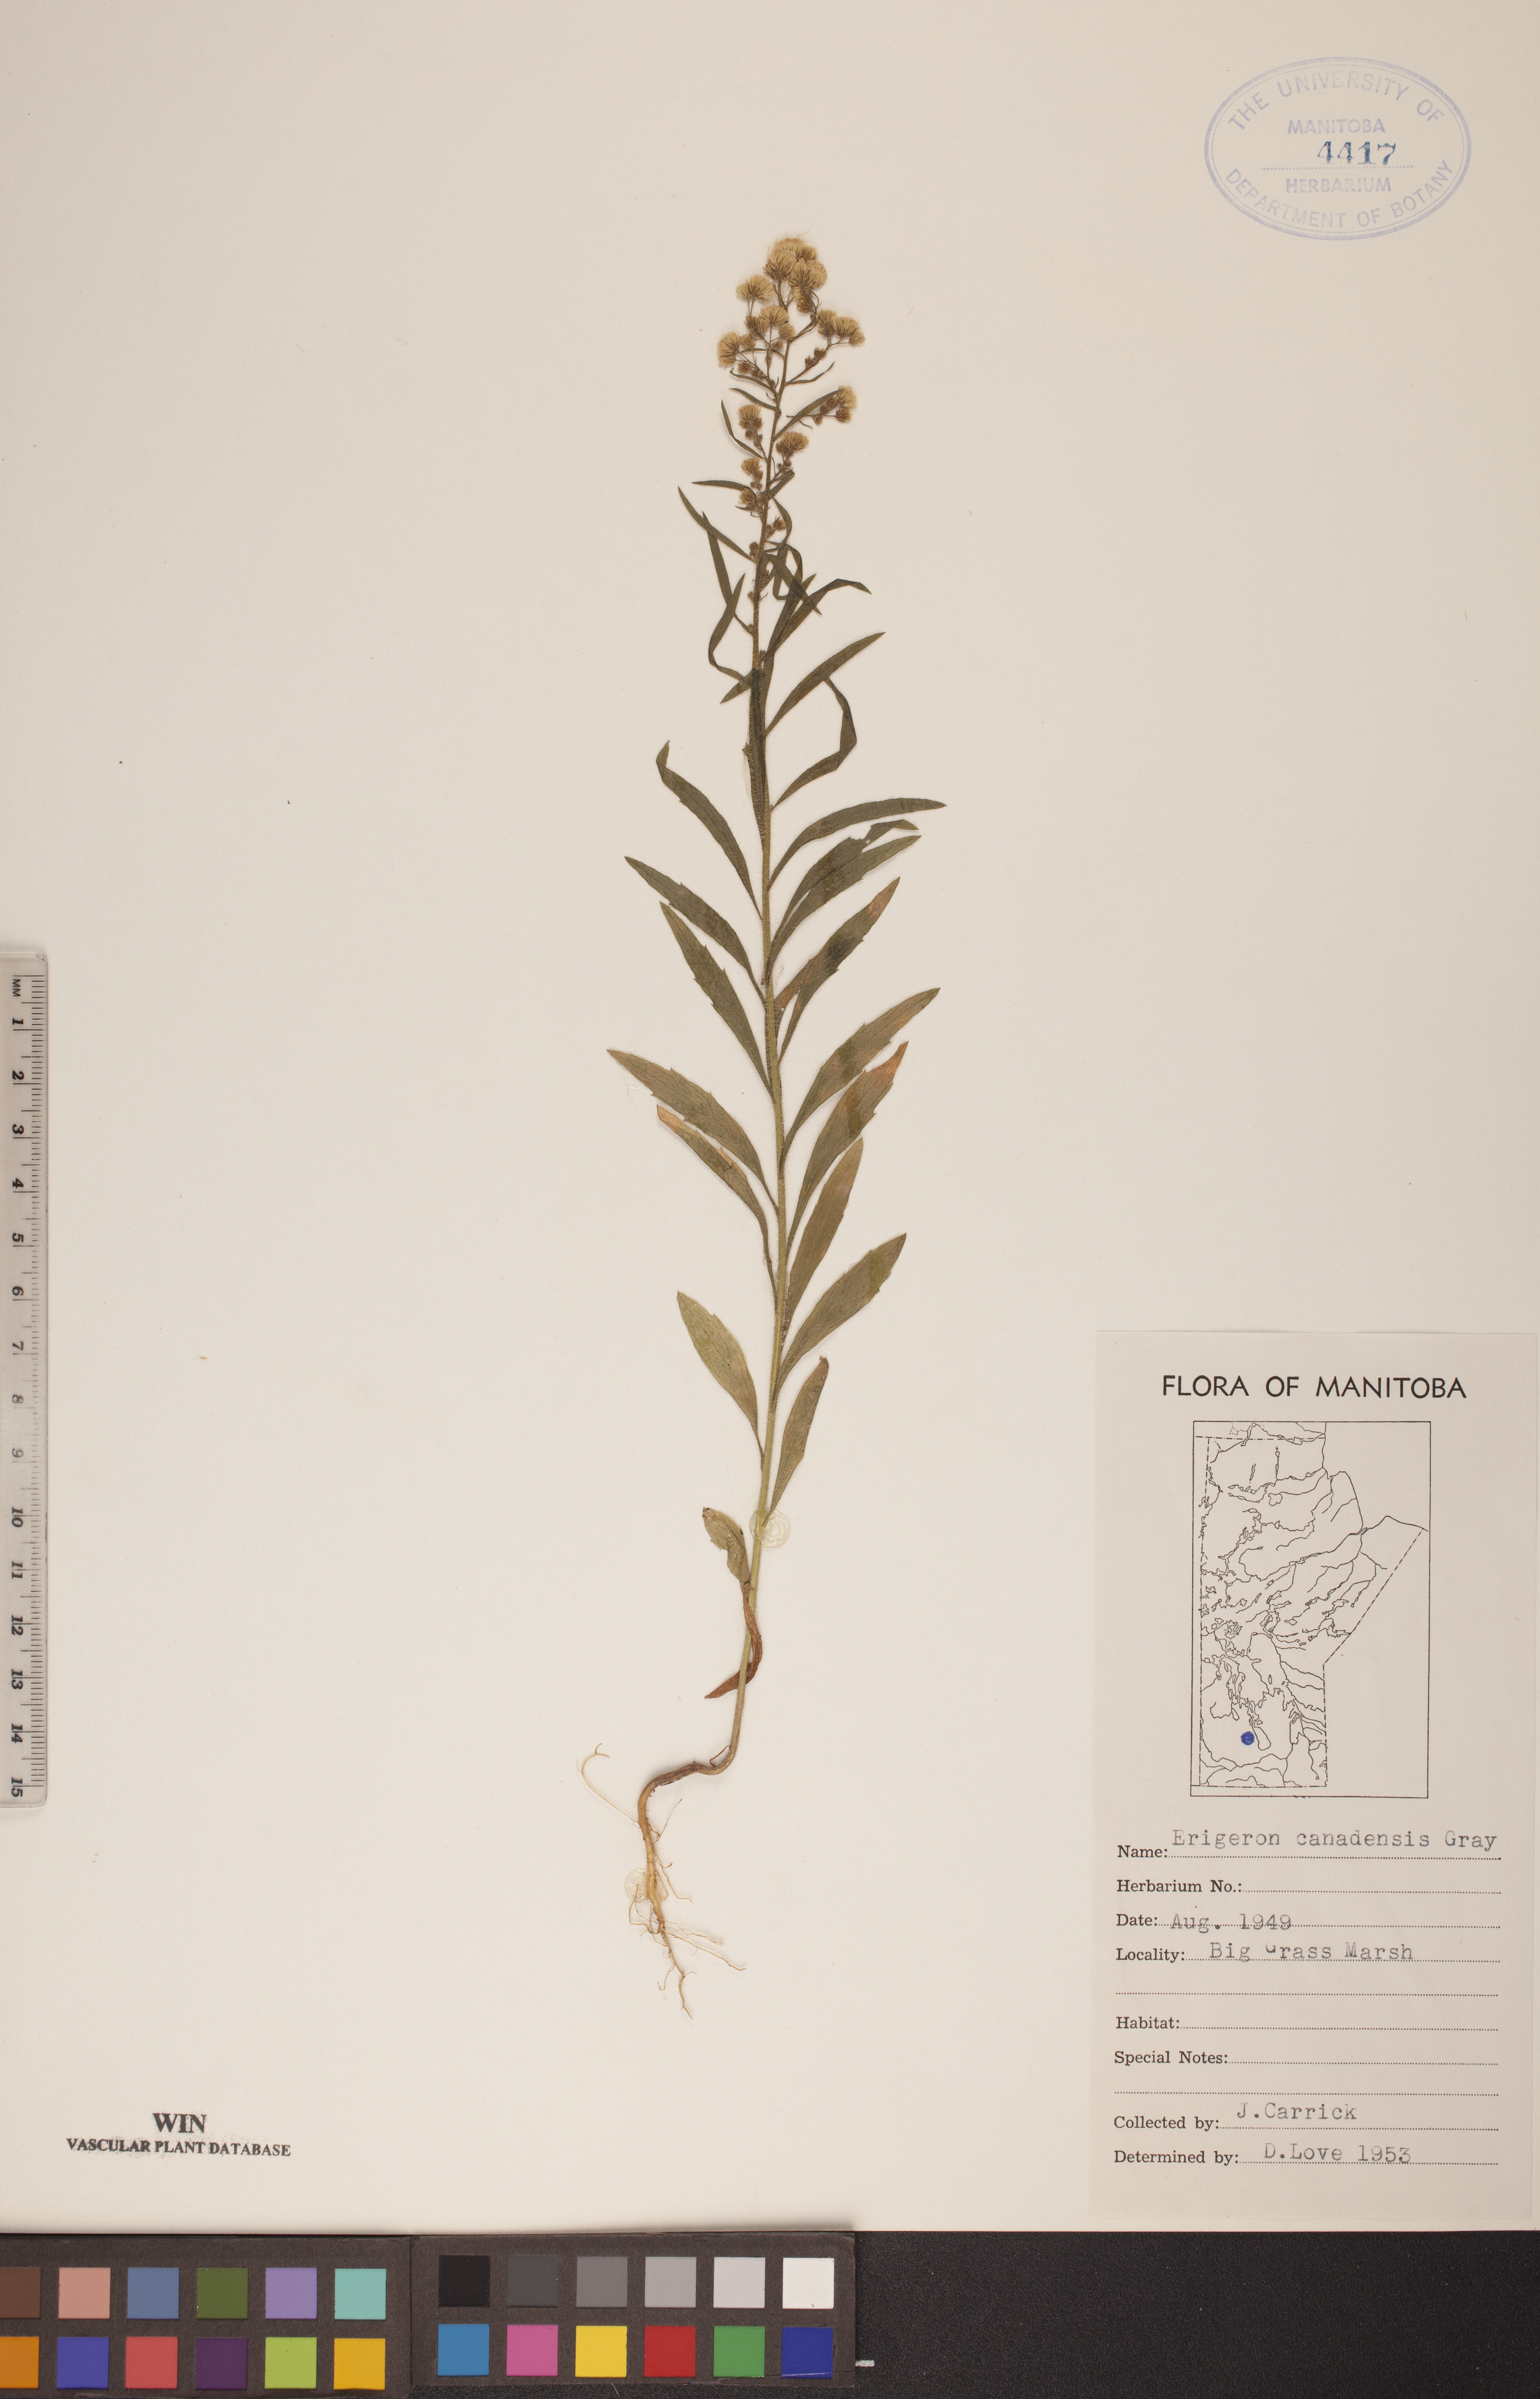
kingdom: Plantae
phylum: Tracheophyta
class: Magnoliopsida
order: Asterales
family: Asteraceae
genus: Erigeron
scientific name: Erigeron canadensis
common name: Canadian fleabane
